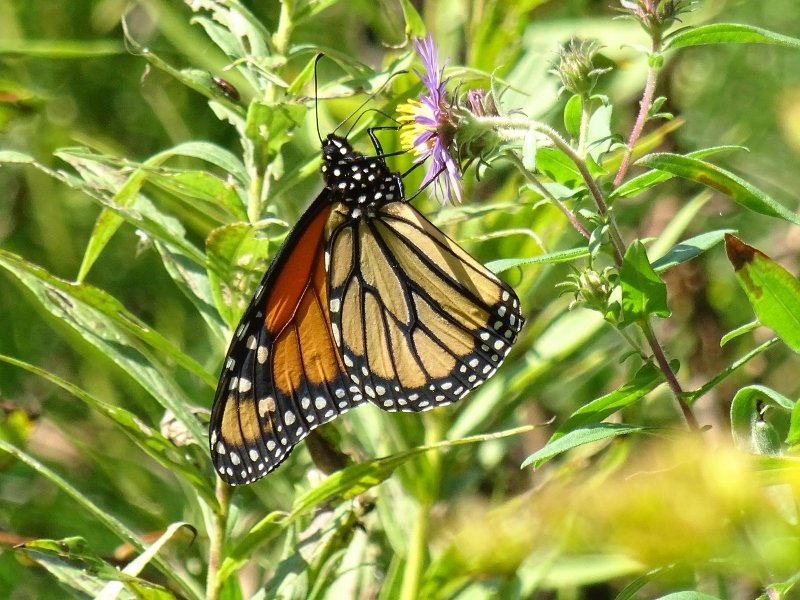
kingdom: Animalia
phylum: Arthropoda
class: Insecta
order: Lepidoptera
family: Nymphalidae
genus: Danaus
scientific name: Danaus plexippus
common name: Monarch
